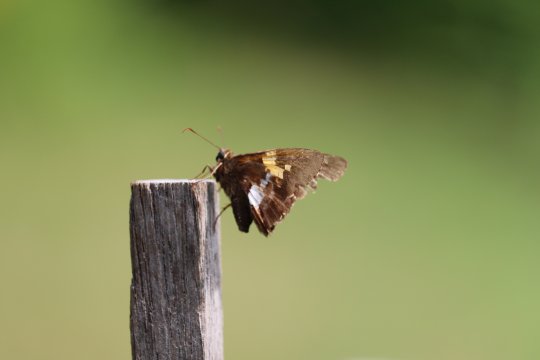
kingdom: Animalia
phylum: Arthropoda
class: Insecta
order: Lepidoptera
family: Hesperiidae
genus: Epargyreus
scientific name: Epargyreus clarus
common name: Silver-spotted Skipper
